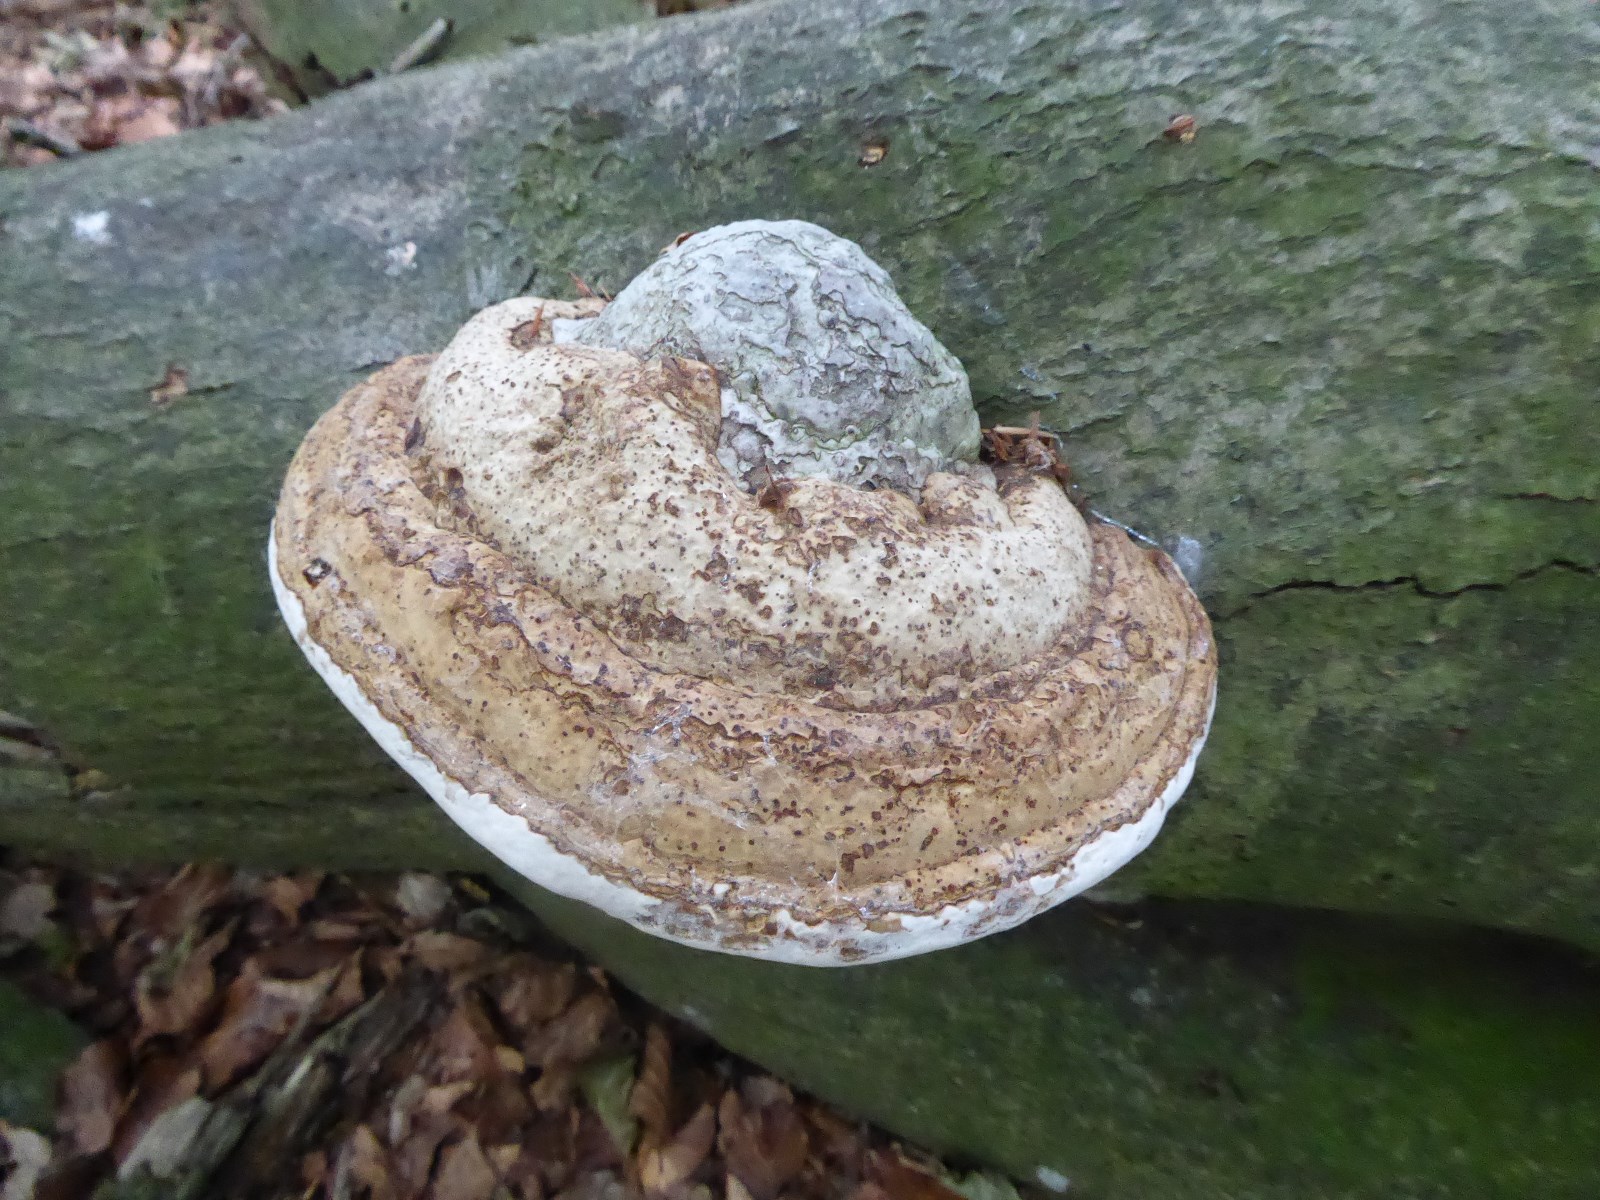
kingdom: Fungi
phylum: Basidiomycota
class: Agaricomycetes
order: Polyporales
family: Polyporaceae
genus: Fomes
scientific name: Fomes fomentarius
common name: tøndersvamp
